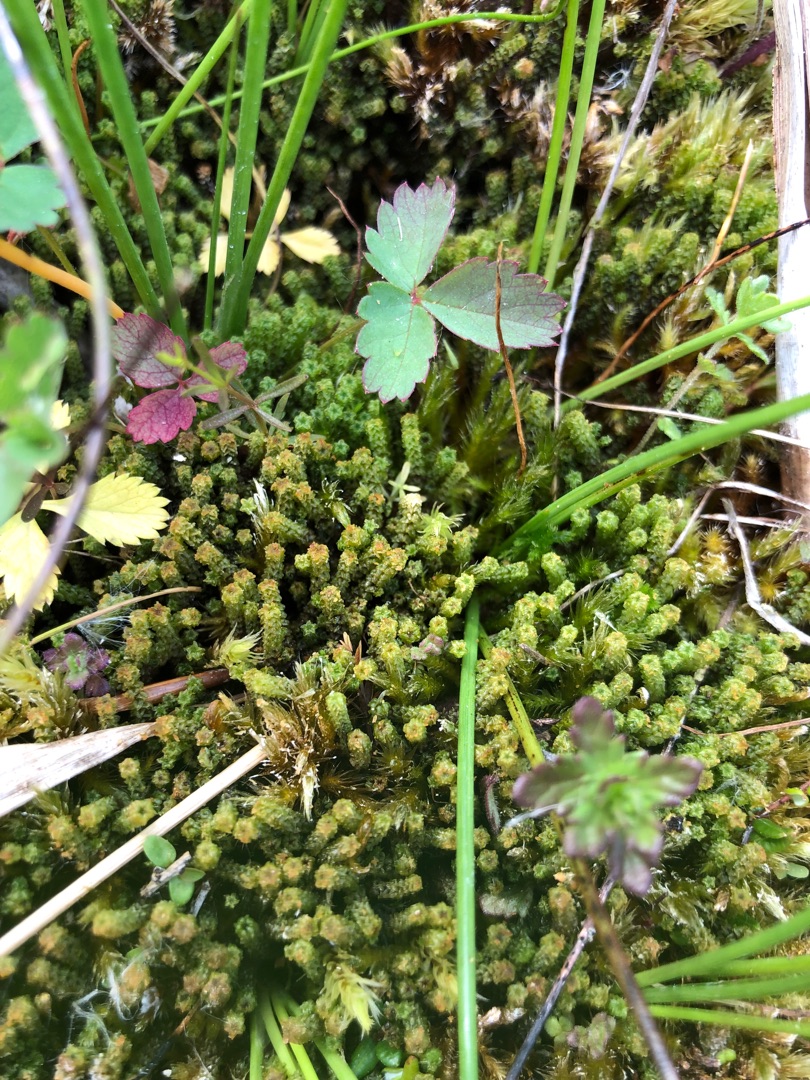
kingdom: Plantae
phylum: Bryophyta
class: Bryopsida
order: Splachnales
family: Meesiaceae
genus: Paludella
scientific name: Paludella squarrosa
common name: Almindelig piberensermos
